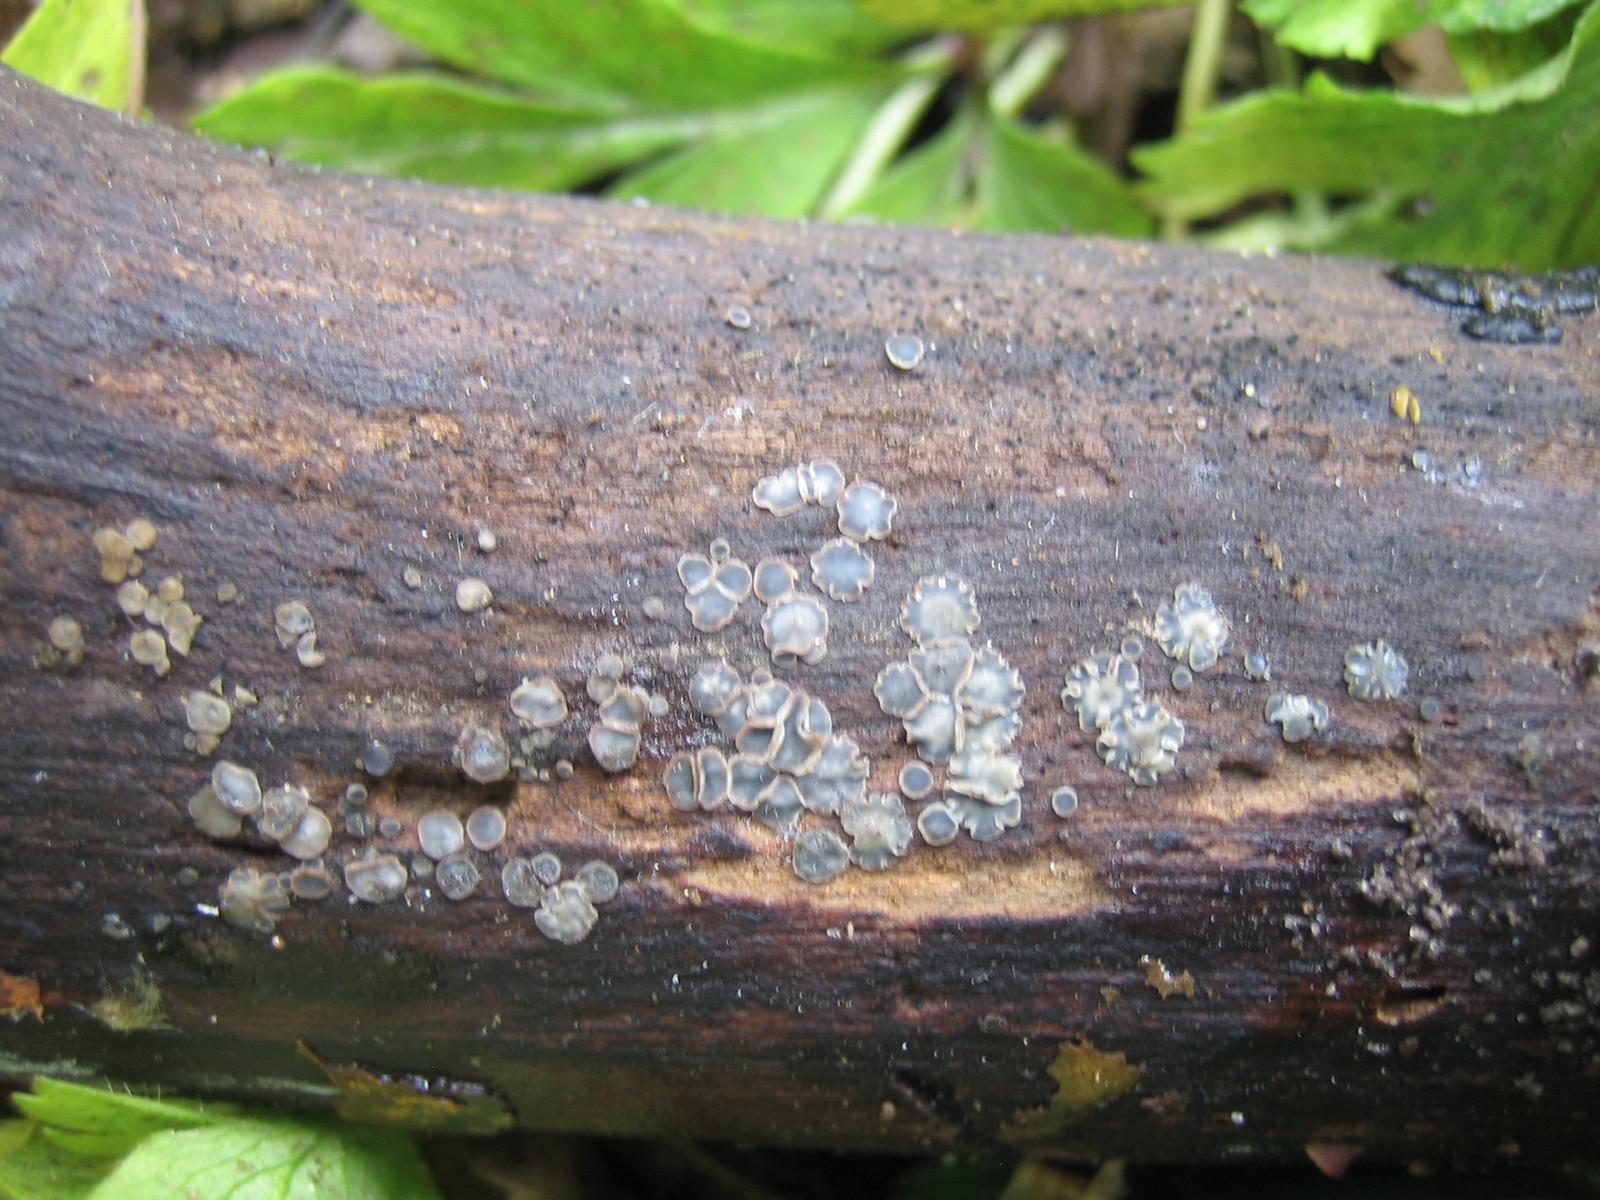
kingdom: Fungi
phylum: Ascomycota
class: Leotiomycetes
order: Helotiales
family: Mollisiaceae
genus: Mollisia
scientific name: Mollisia cinerea
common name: almindelig gråskive
